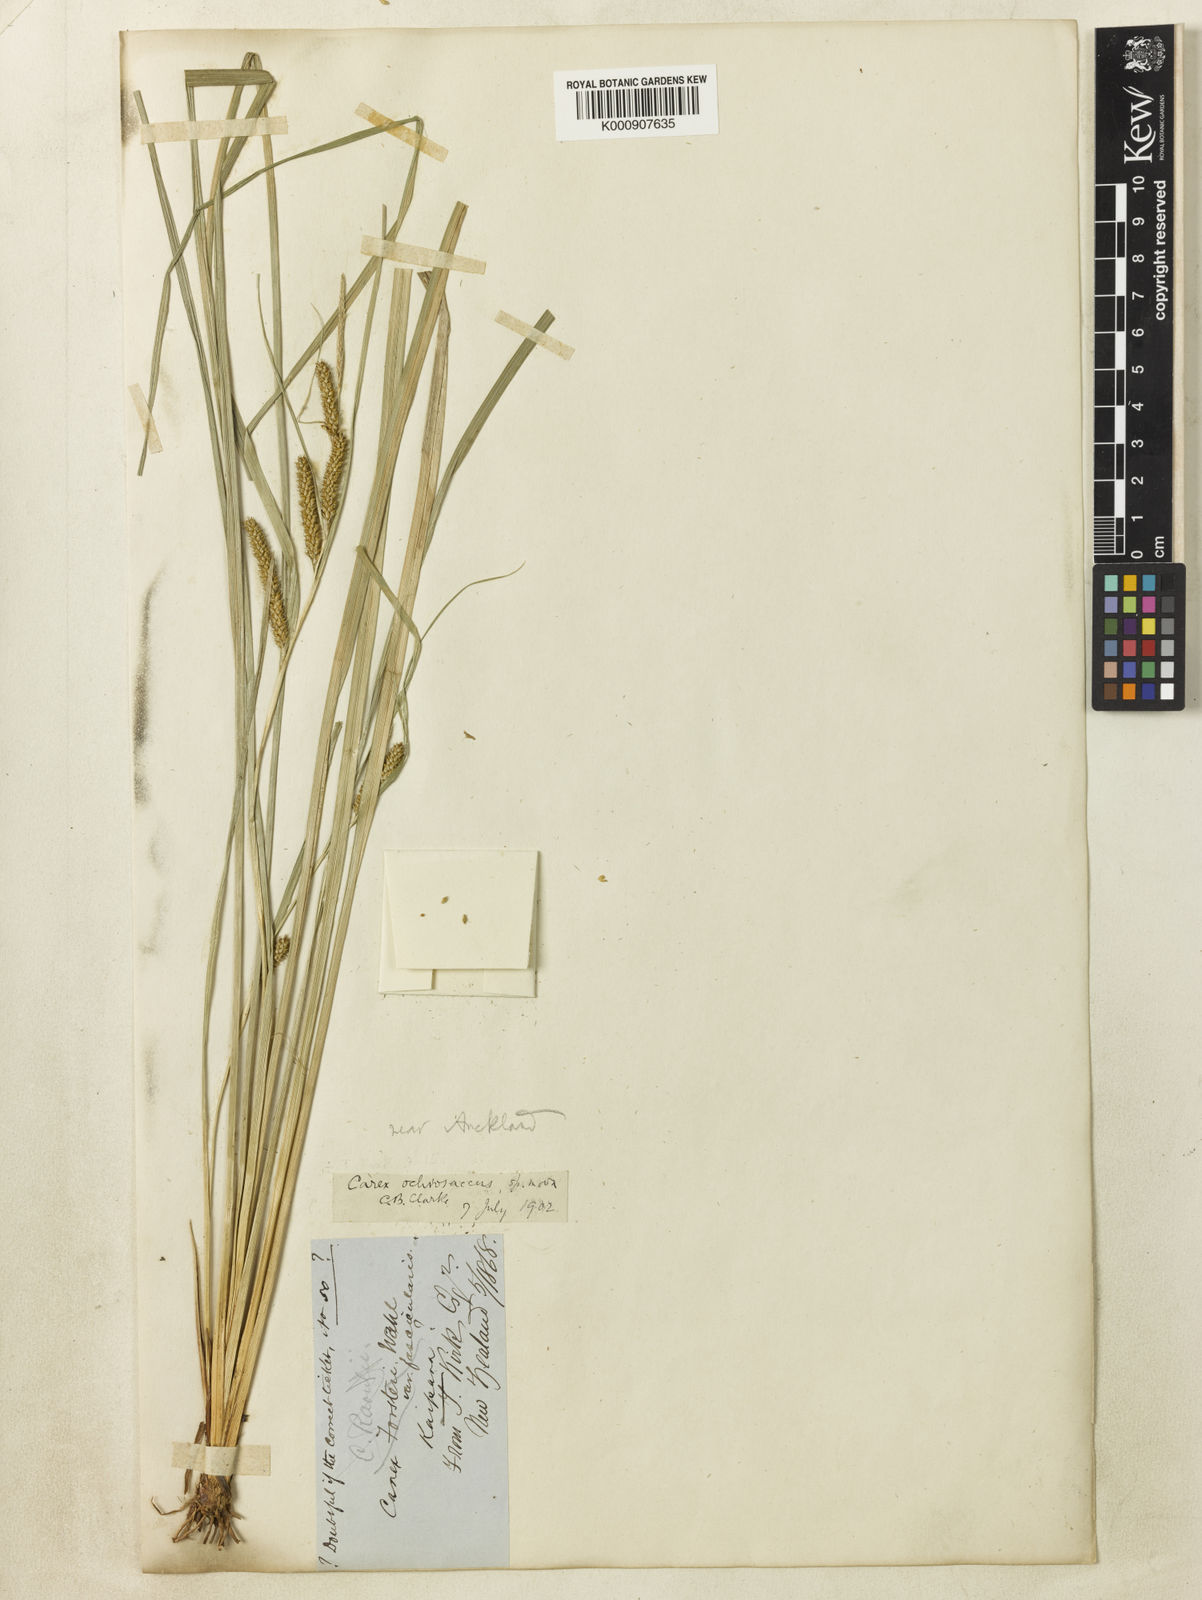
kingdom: Plantae
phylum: Tracheophyta
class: Liliopsida
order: Poales
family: Cyperaceae
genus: Carex
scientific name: Carex ochrosaccus
